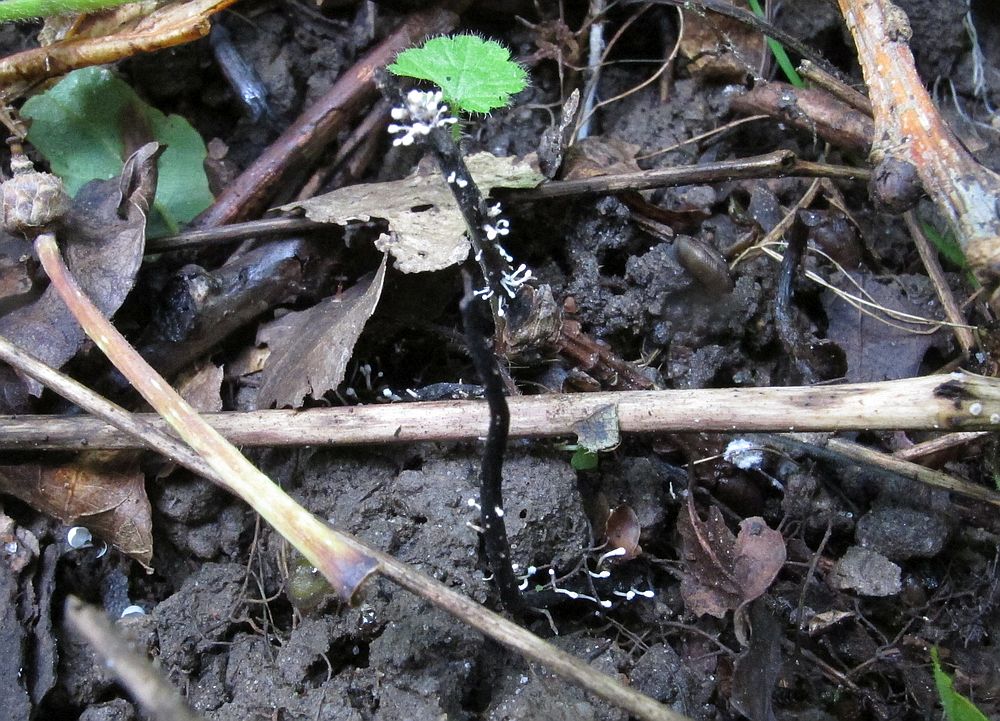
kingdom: Fungi
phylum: Ascomycota
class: Sordariomycetes
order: Hypocreales
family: Ophiocordycipitaceae
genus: Polycephalomyces
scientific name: Polycephalomyces ramosus
